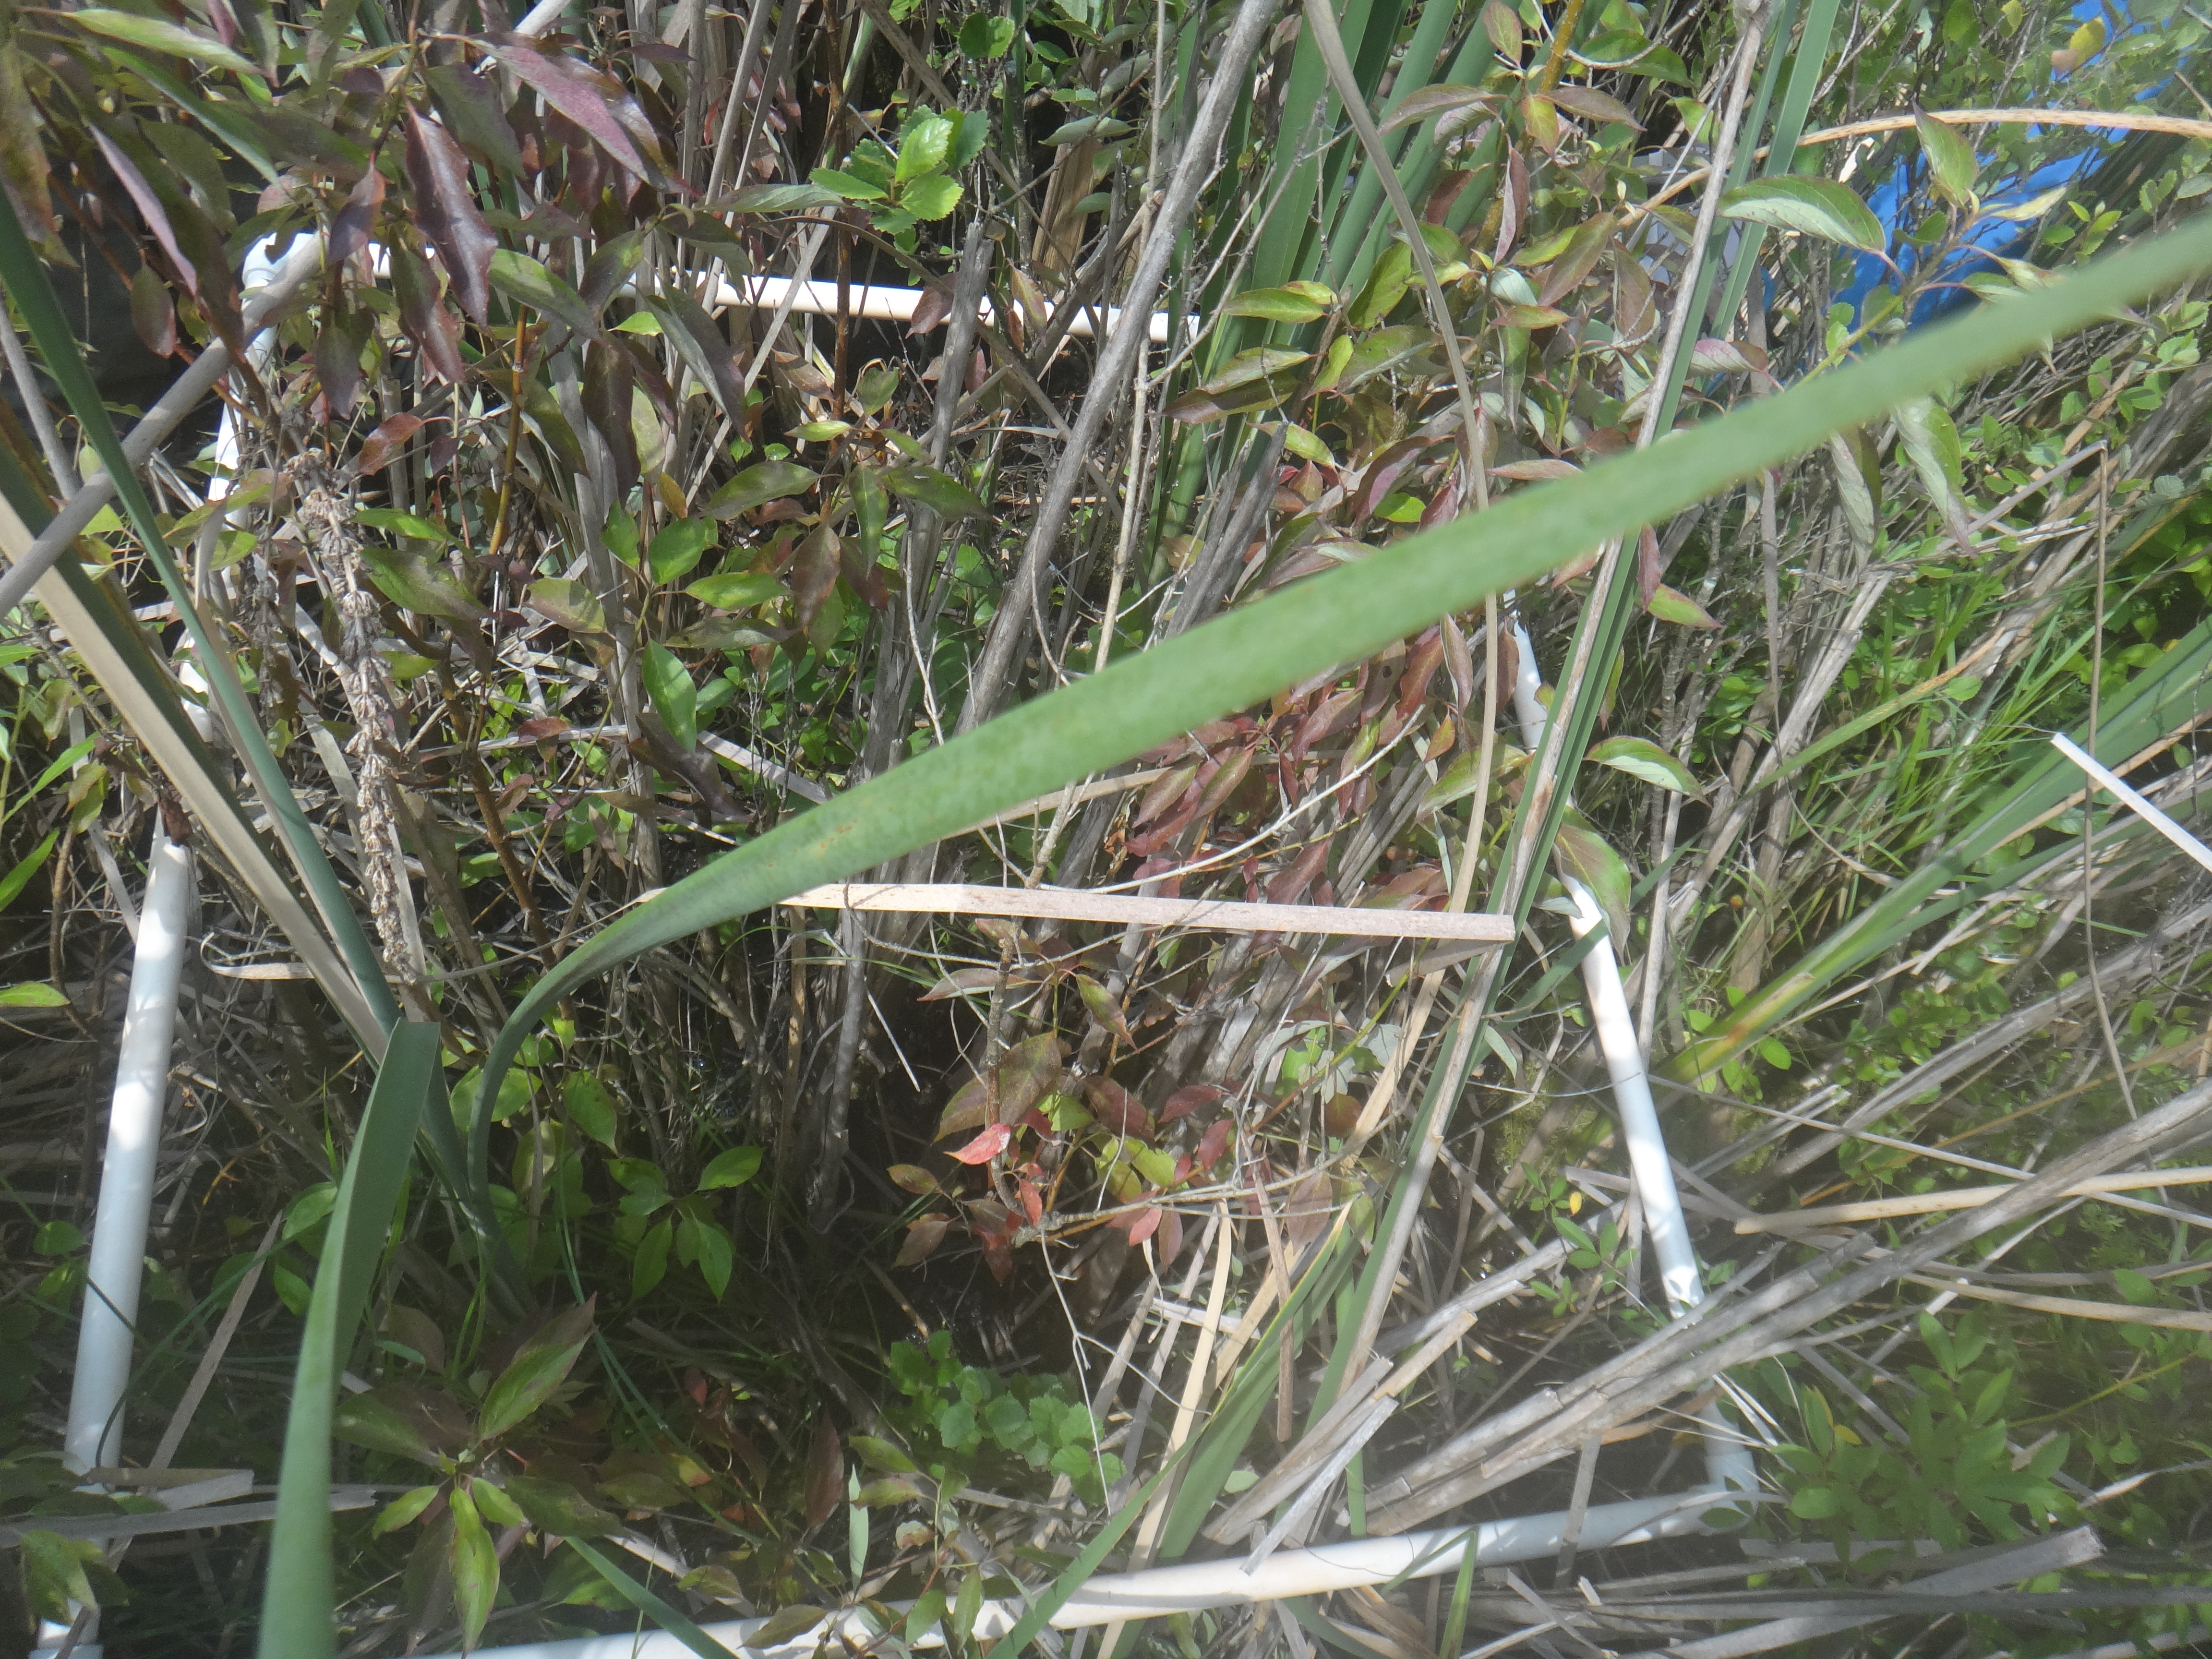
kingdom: Plantae
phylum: Tracheophyta
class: Magnoliopsida
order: Cornales
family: Cornaceae
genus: Cornus
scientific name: Cornus foemina
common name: Swamp dogwood
